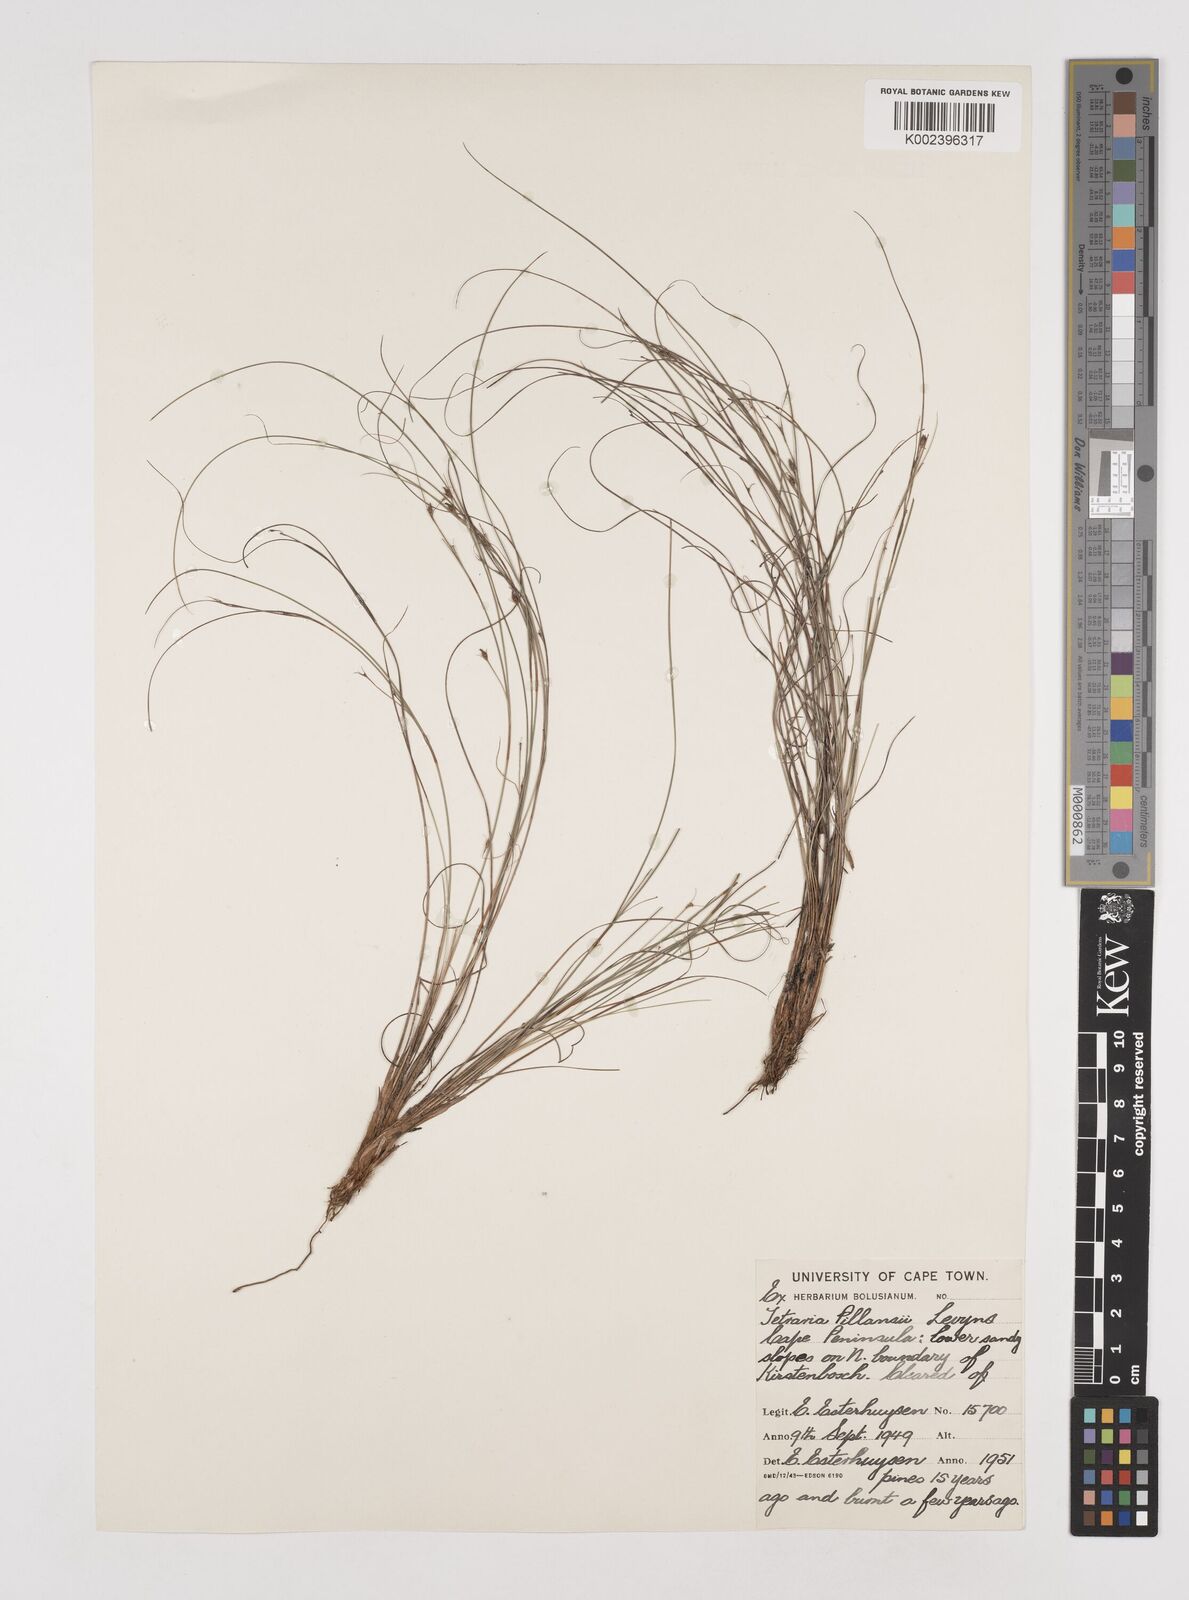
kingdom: Plantae
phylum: Tracheophyta
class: Liliopsida
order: Poales
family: Cyperaceae
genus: Tetraria
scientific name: Tetraria pillansii
